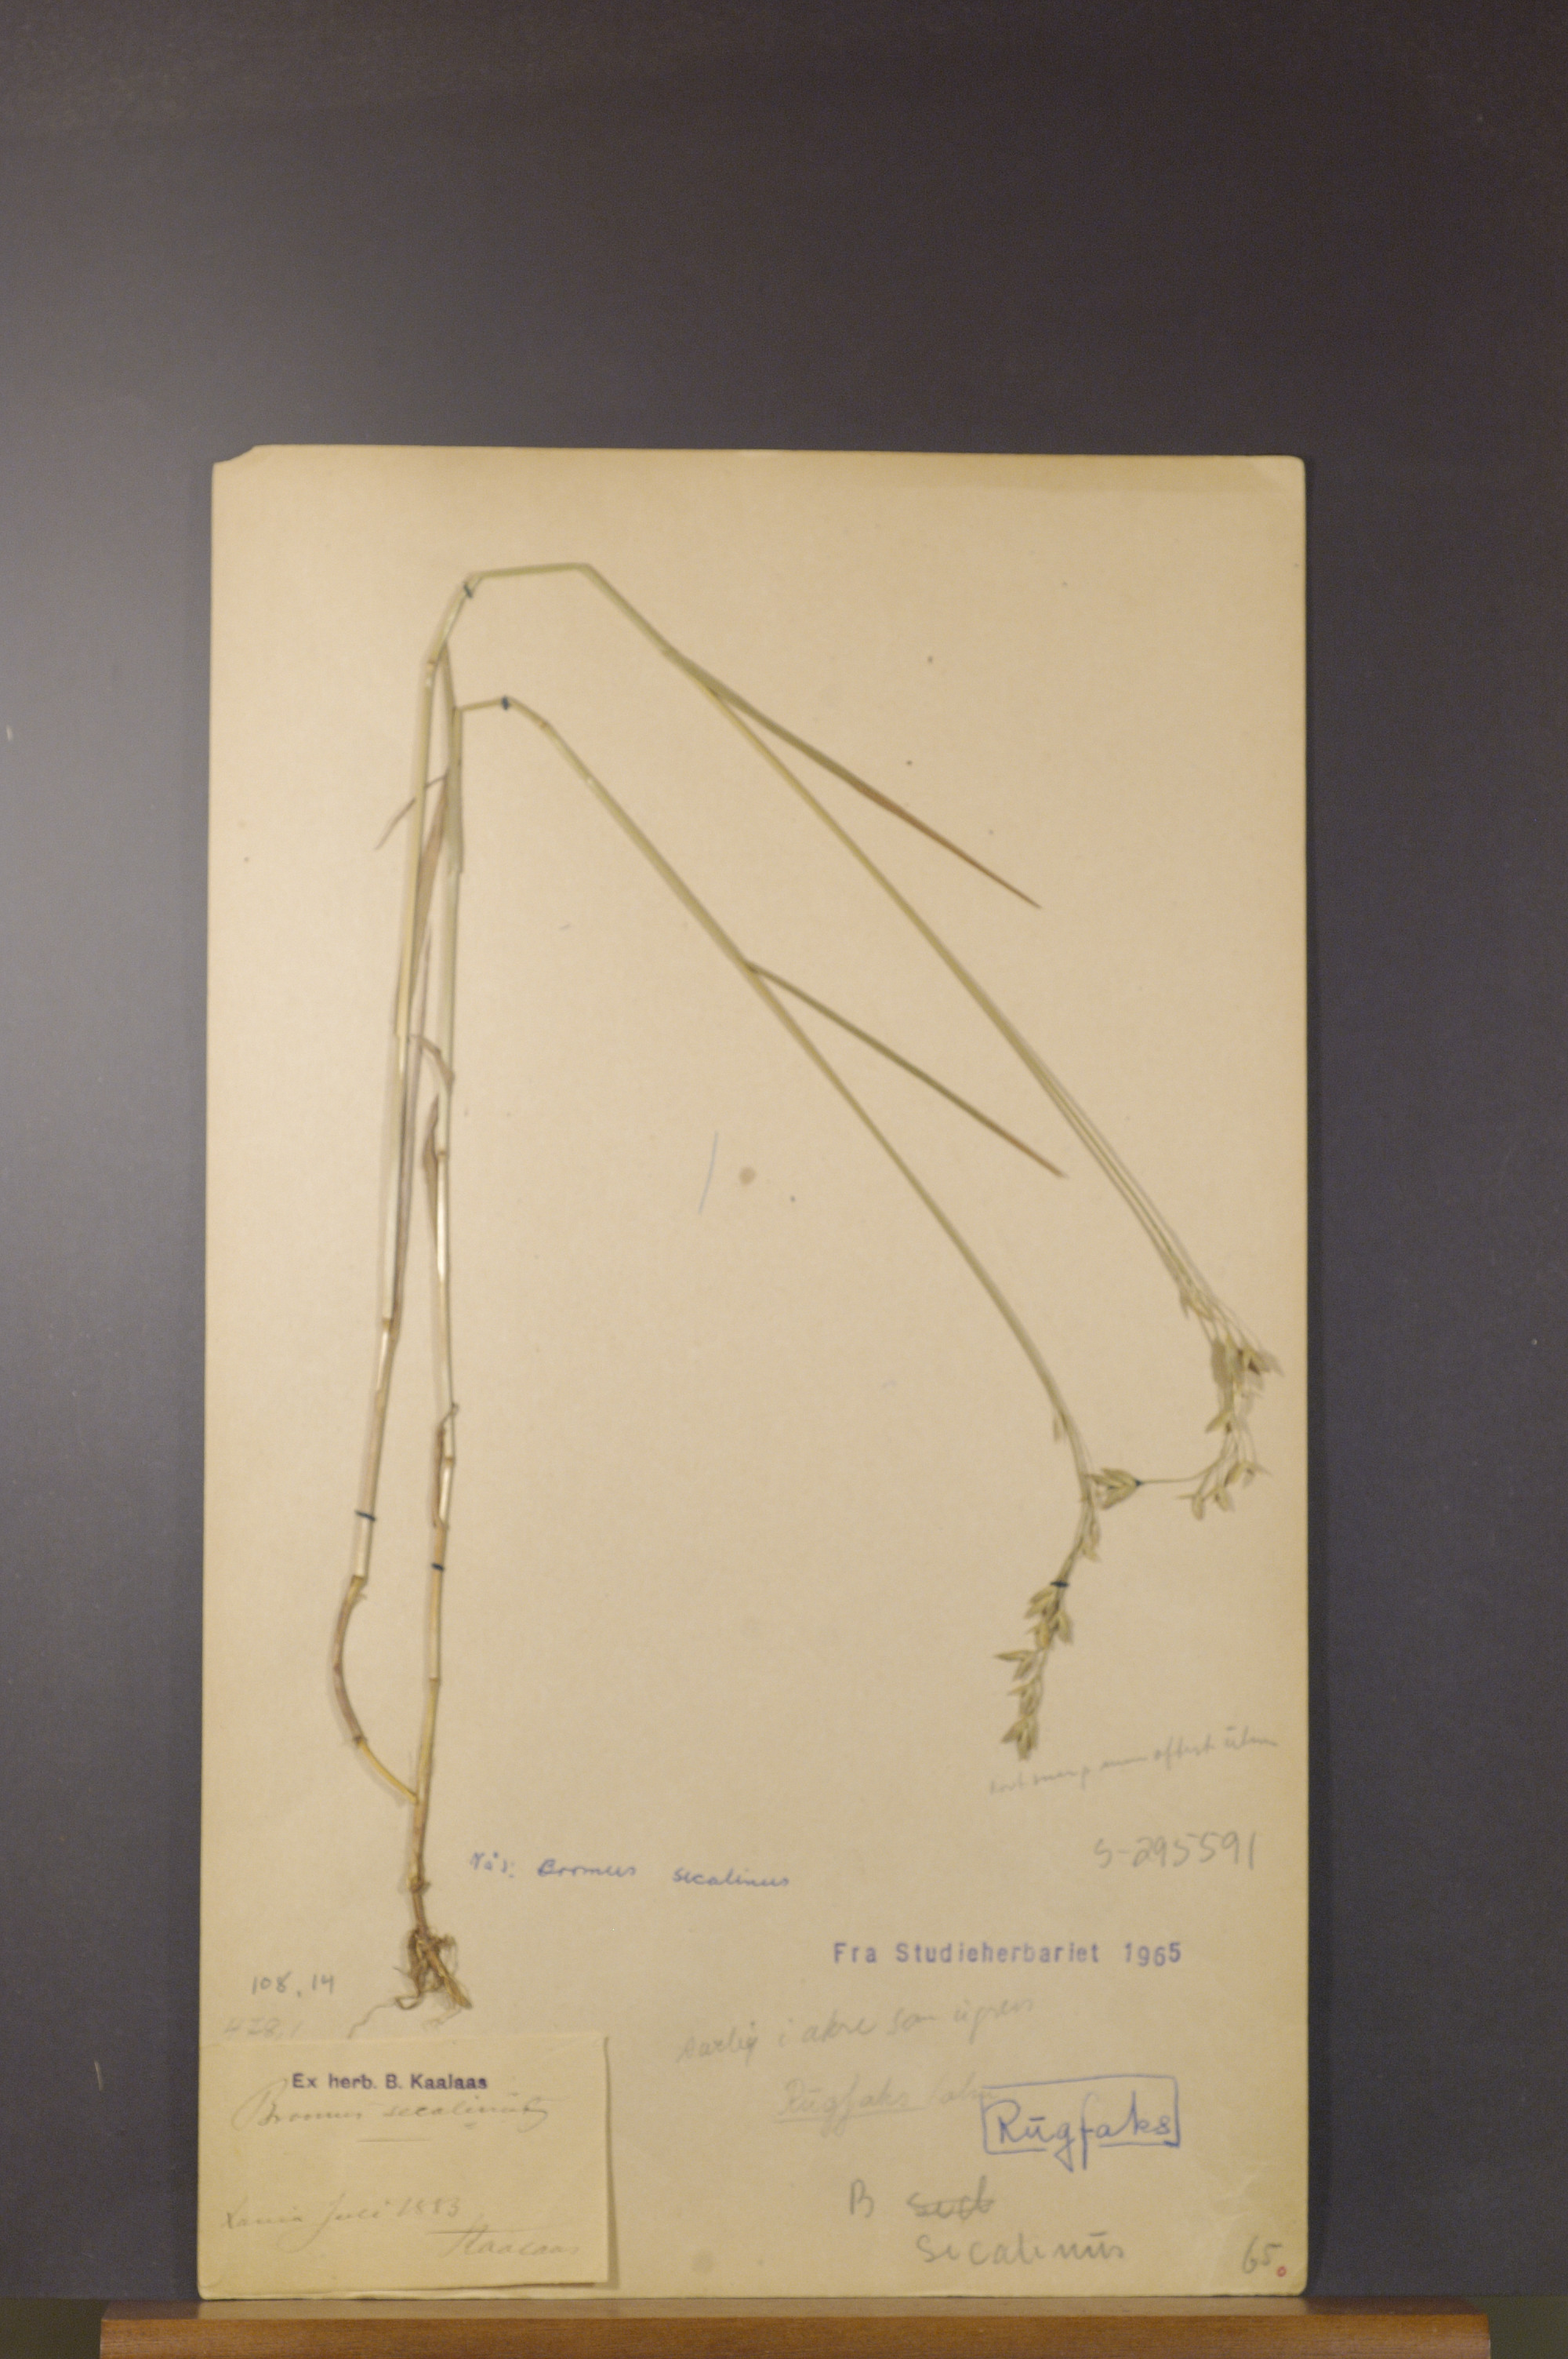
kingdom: Plantae
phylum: Tracheophyta
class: Liliopsida
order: Poales
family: Poaceae
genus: Bromus
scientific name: Bromus secalinus
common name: Rye brome
